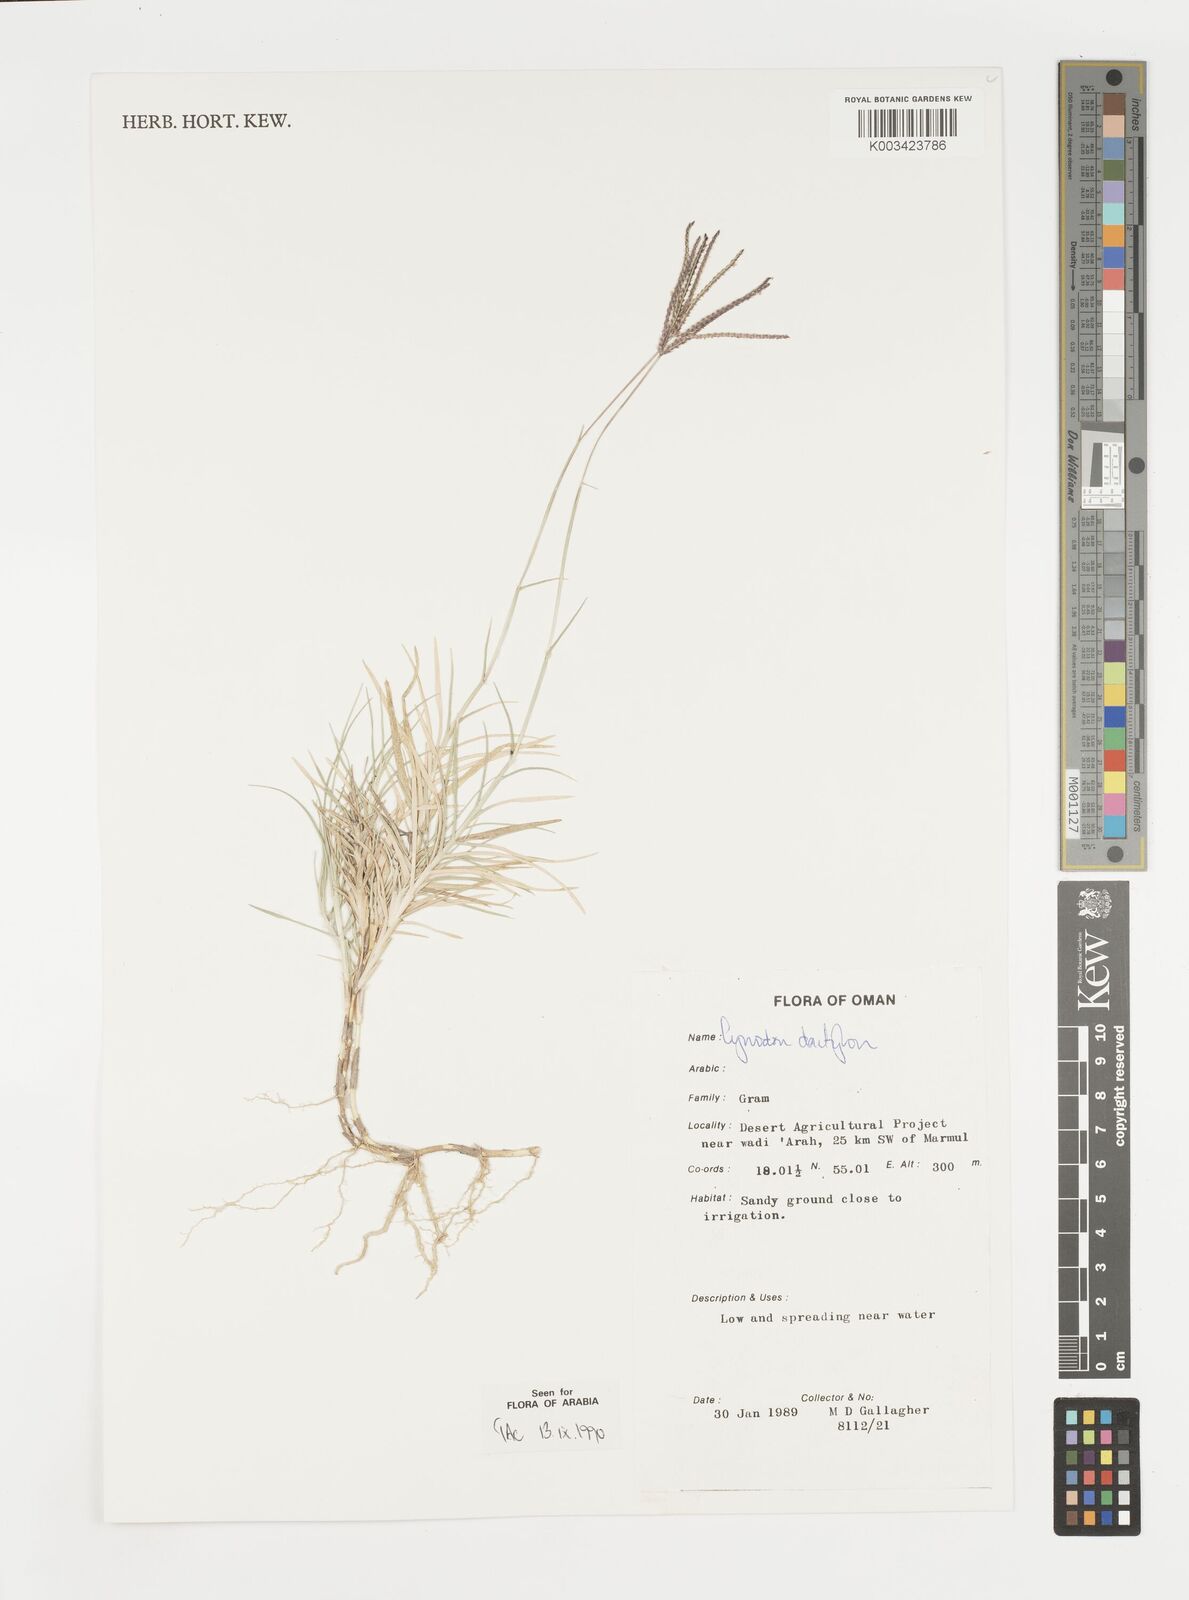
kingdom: Plantae
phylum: Tracheophyta
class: Liliopsida
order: Poales
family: Poaceae
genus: Cynodon
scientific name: Cynodon dactylon
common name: Bermuda grass
